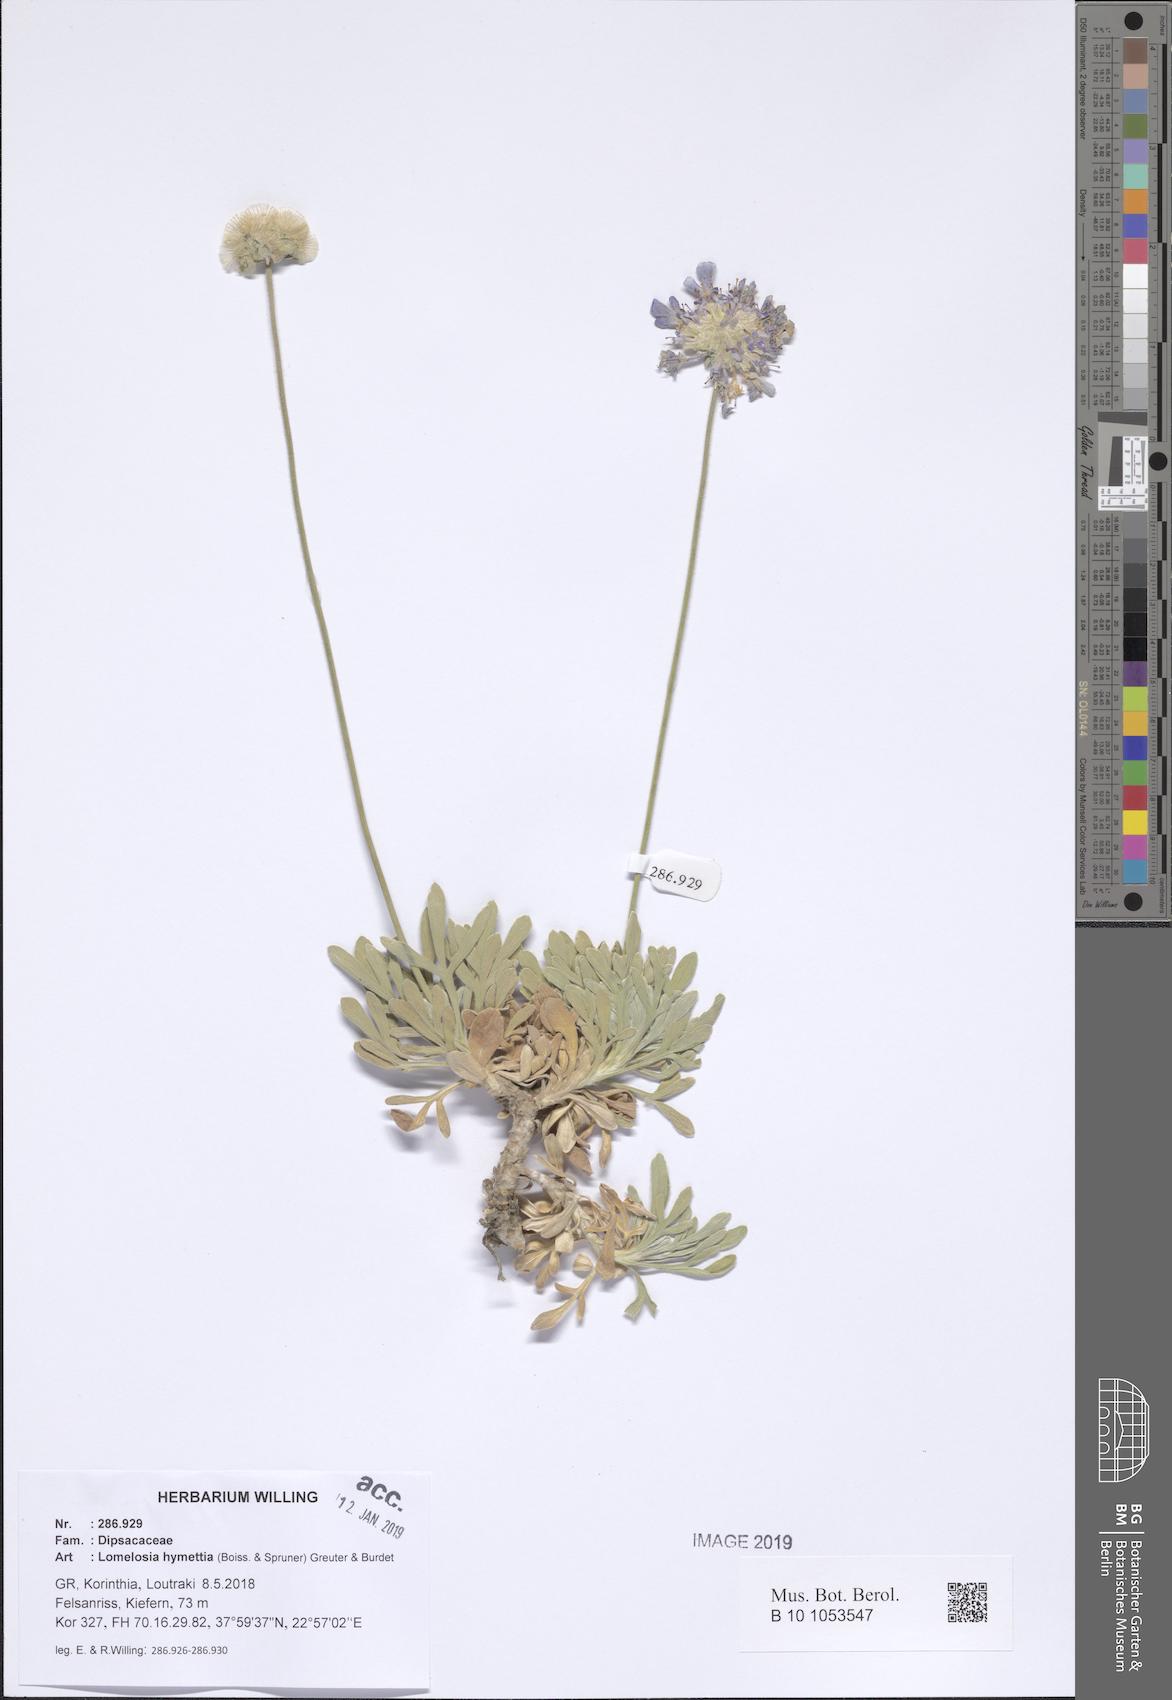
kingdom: Plantae
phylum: Tracheophyta
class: Magnoliopsida
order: Dipsacales
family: Caprifoliaceae
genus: Lomelosia
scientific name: Lomelosia hymettia
